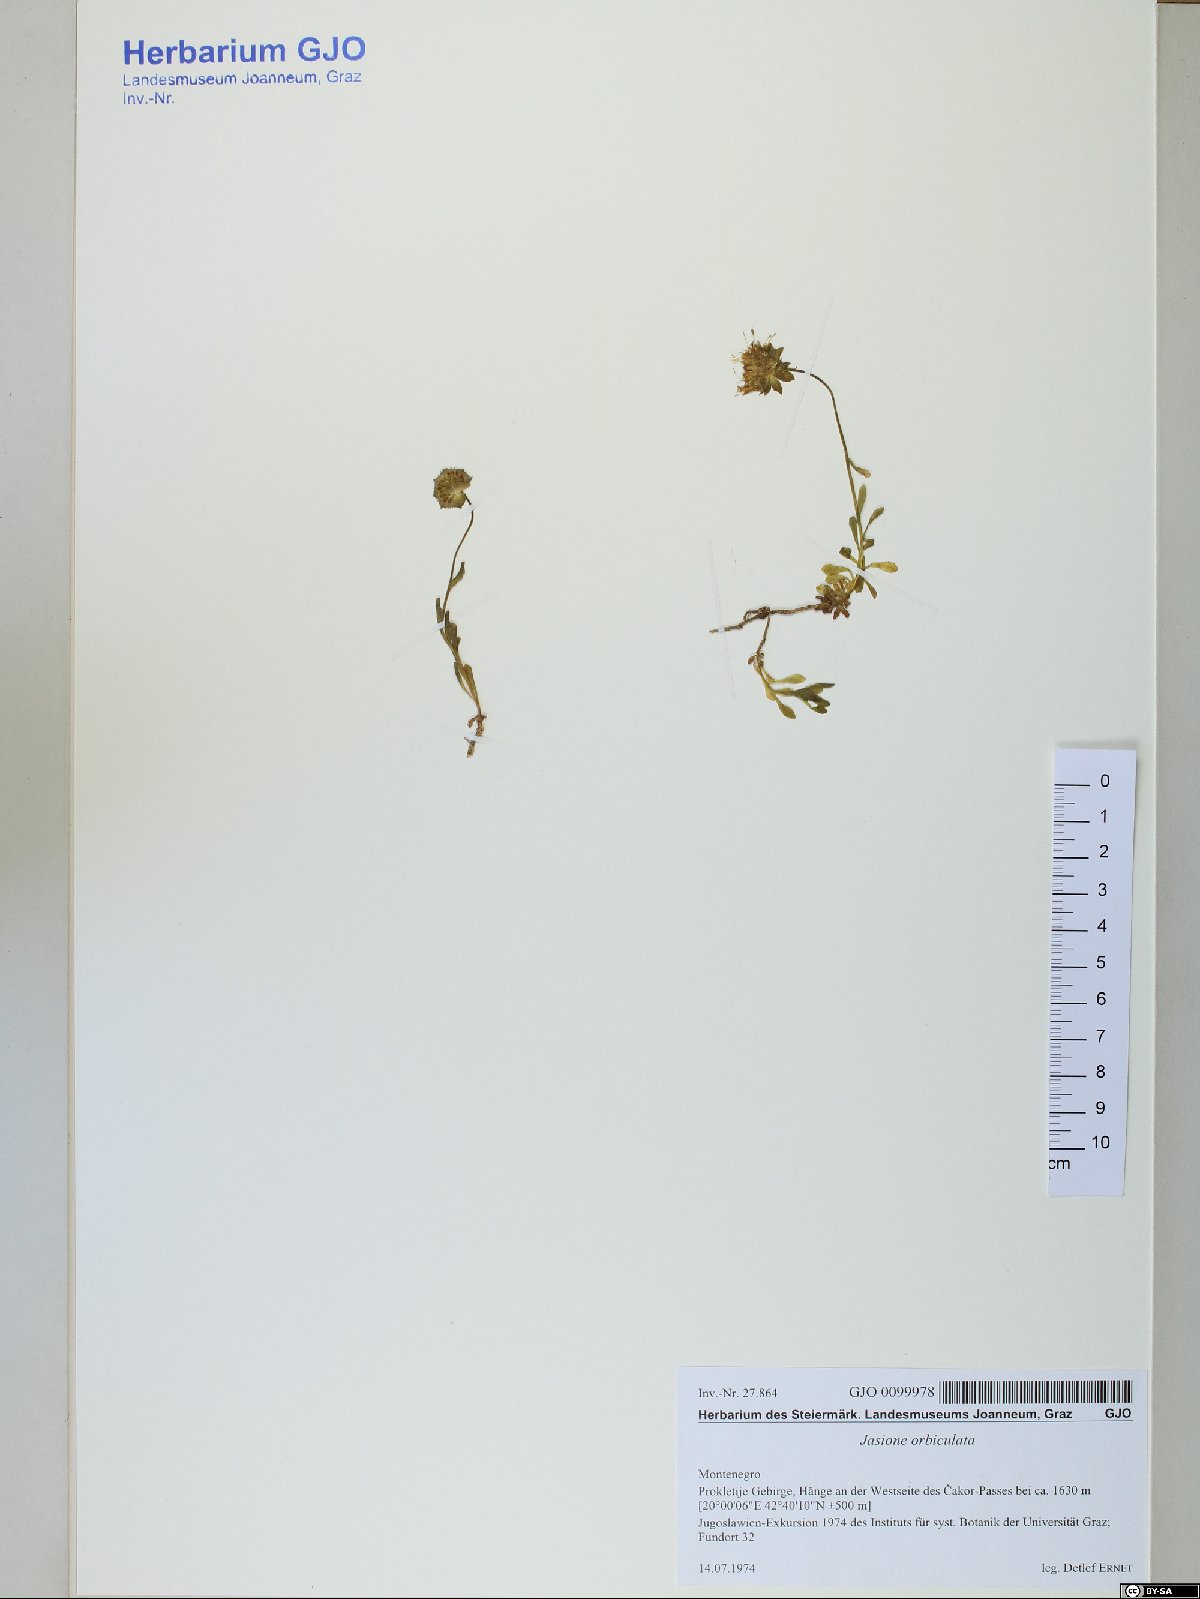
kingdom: Plantae
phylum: Tracheophyta
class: Magnoliopsida
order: Asterales
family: Campanulaceae
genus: Jasione
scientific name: Jasione orbiculata
